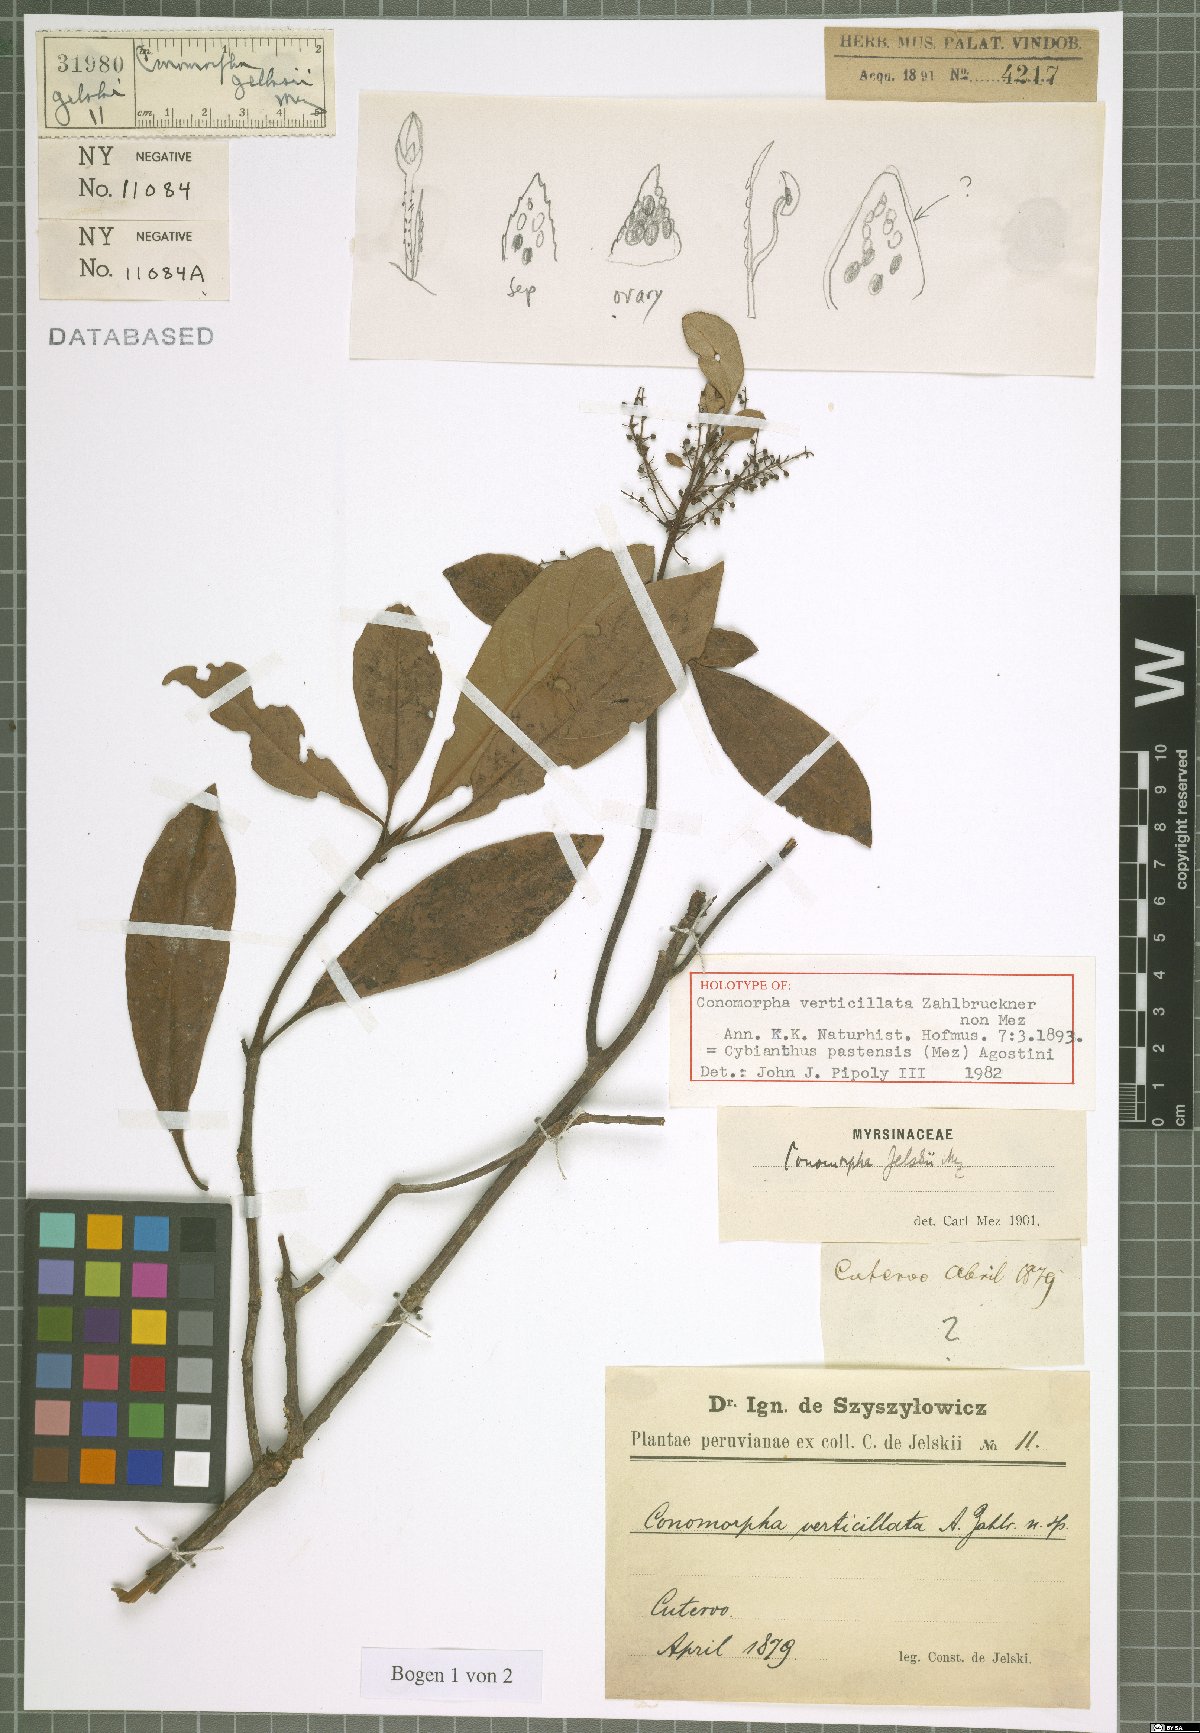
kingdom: Plantae
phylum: Tracheophyta
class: Magnoliopsida
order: Ericales
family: Primulaceae
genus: Cybianthus
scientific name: Cybianthus pastensis
